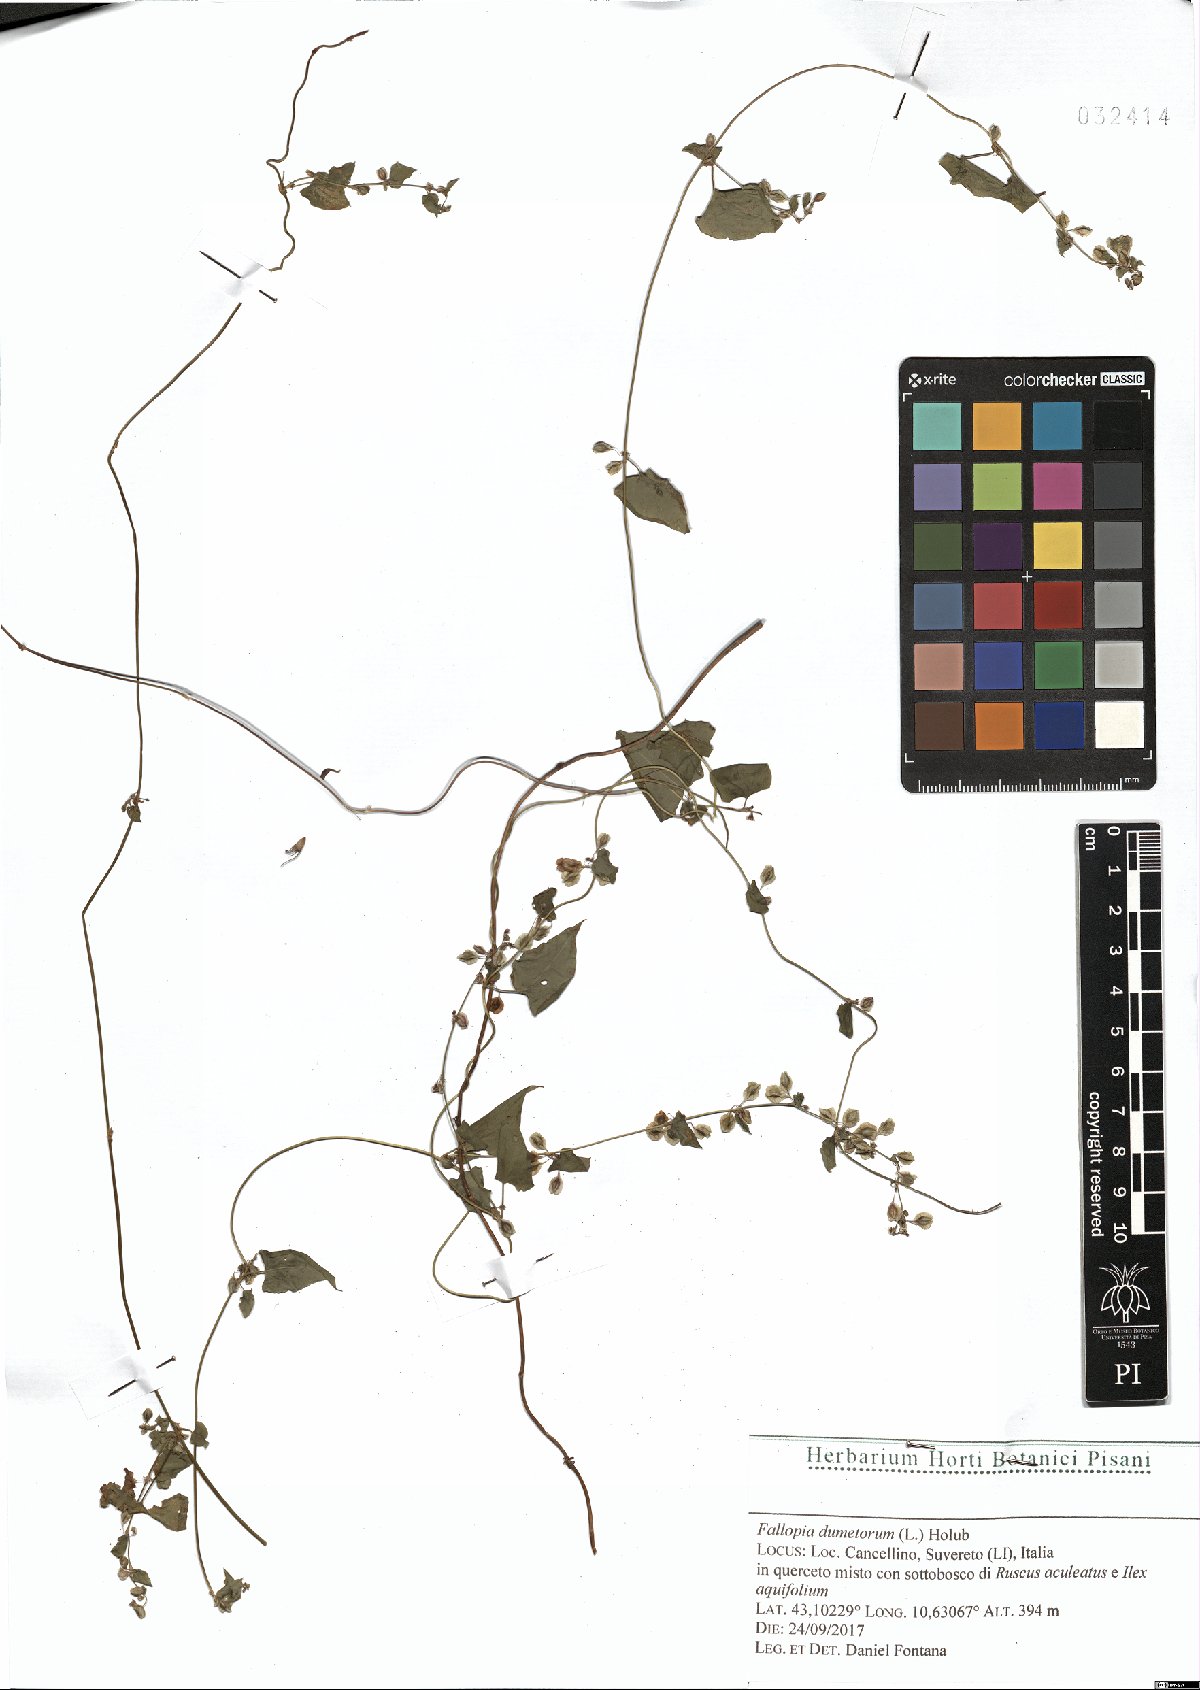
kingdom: Plantae
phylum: Tracheophyta
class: Magnoliopsida
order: Caryophyllales
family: Polygonaceae
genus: Fallopia
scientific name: Fallopia dumetorum
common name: Copse-bindweed
